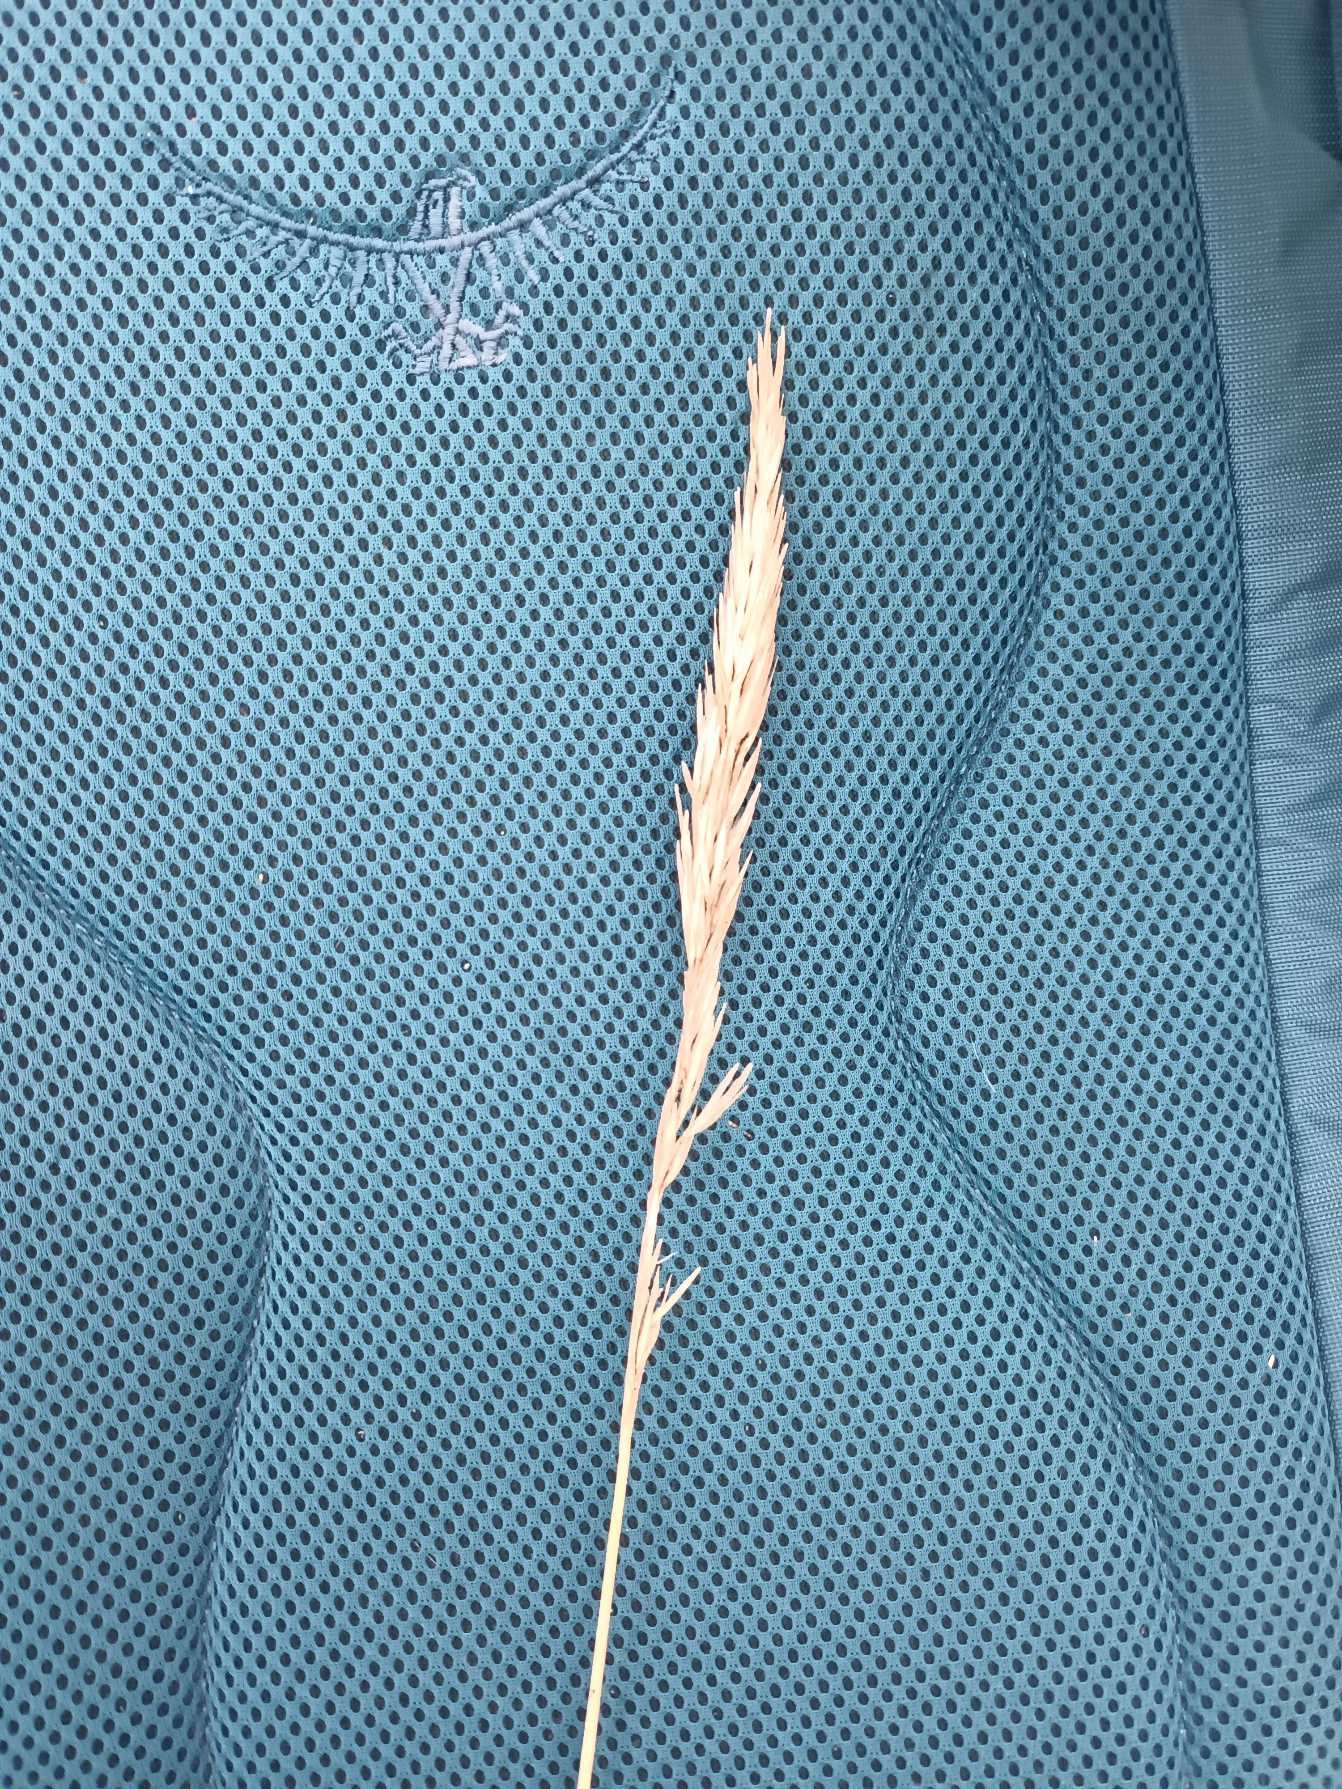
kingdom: Plantae
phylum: Tracheophyta
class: Liliopsida
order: Poales
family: Poaceae
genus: Calamagrostis
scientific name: Calamagrostis arenaria
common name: Sand-hjælme
